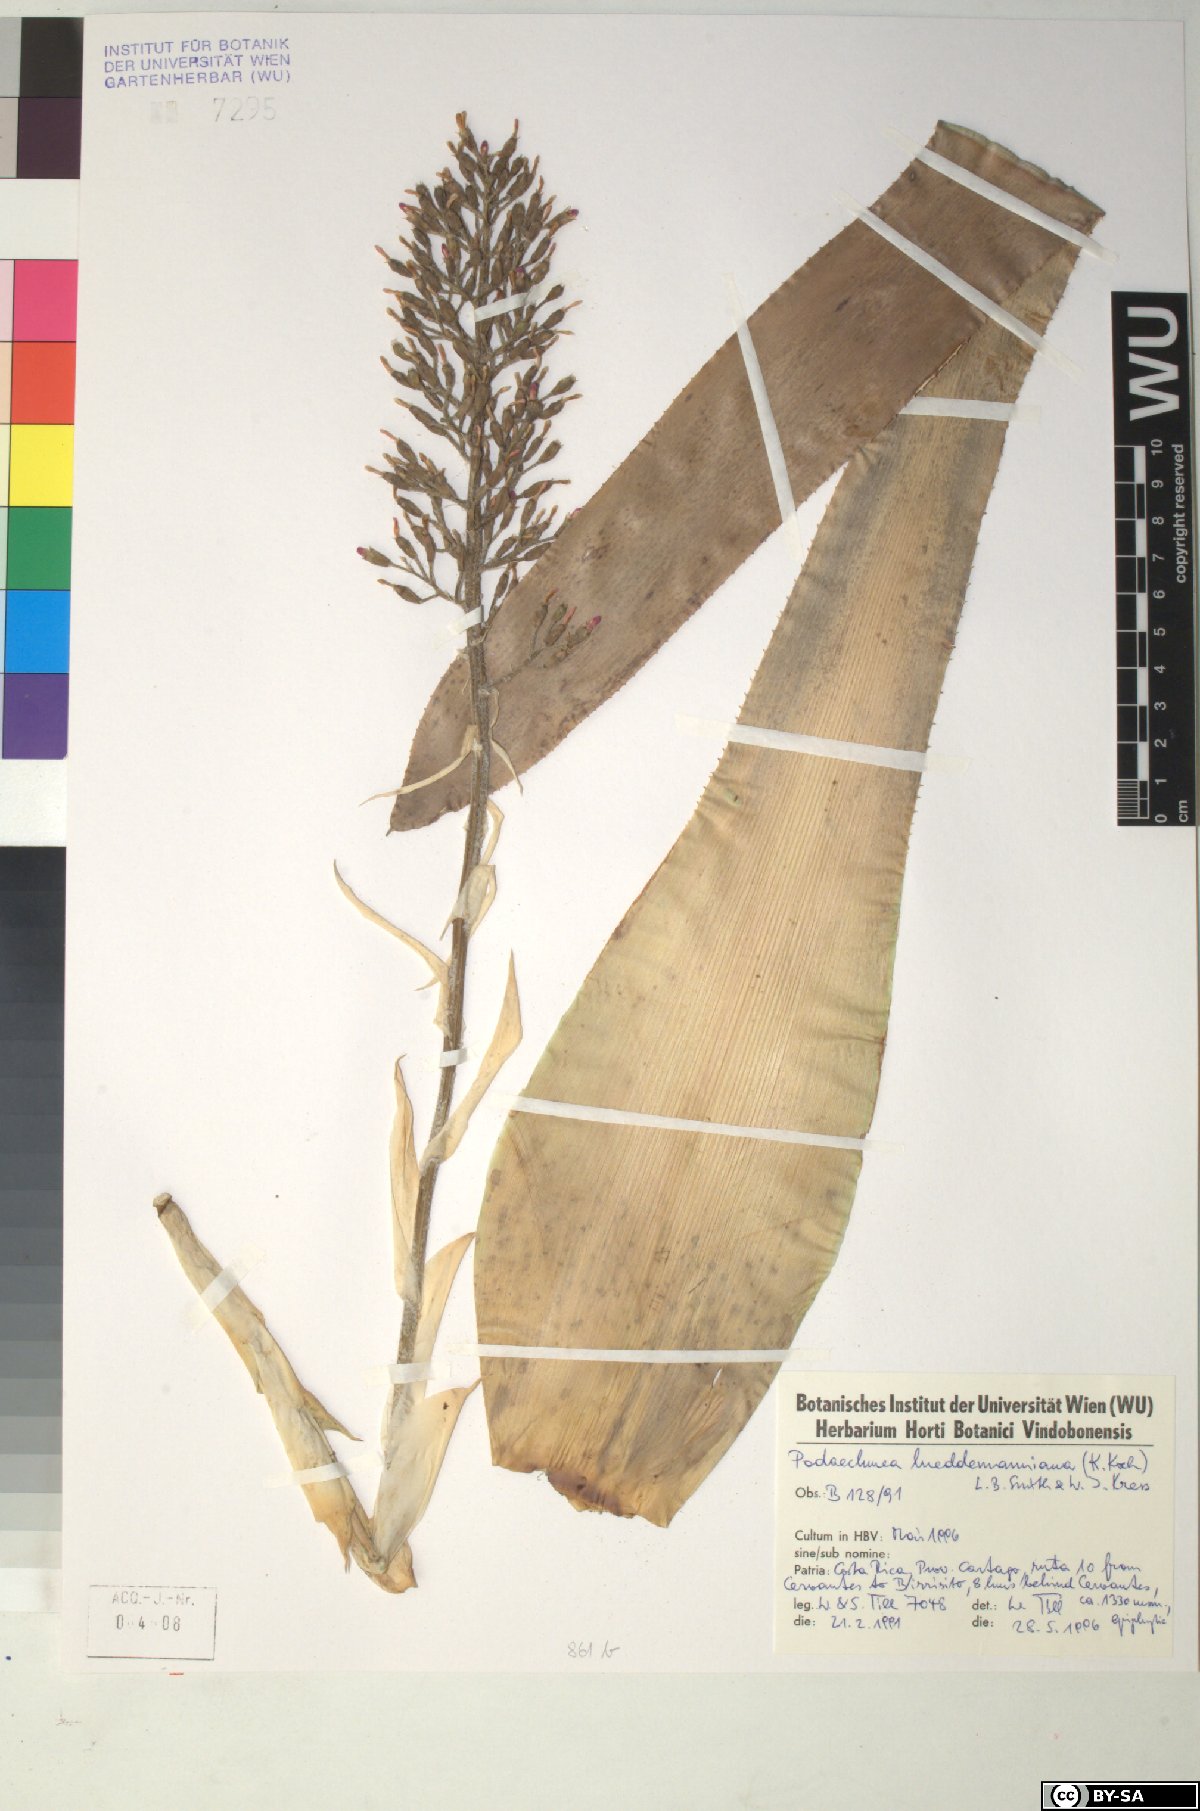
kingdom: Plantae
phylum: Tracheophyta
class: Liliopsida
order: Poales
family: Bromeliaceae
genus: Aechmea
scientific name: Aechmea lueddemanniana
